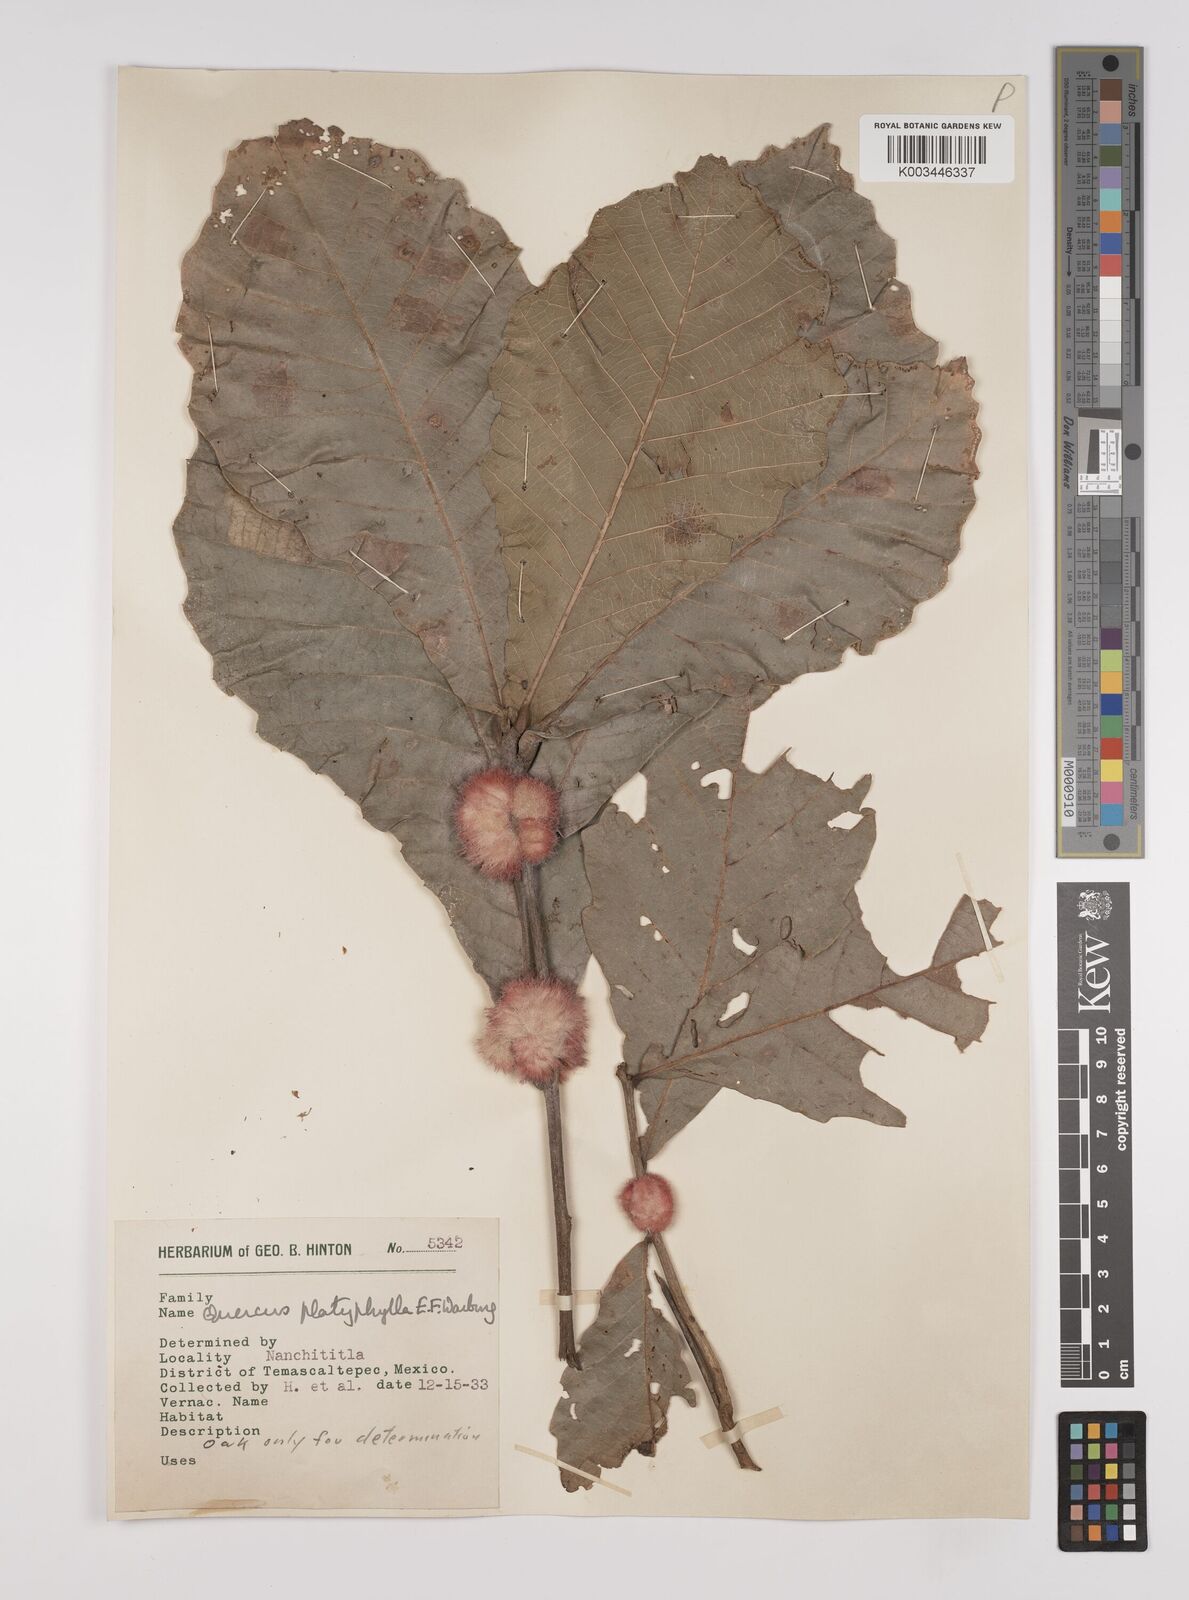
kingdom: Plantae
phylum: Tracheophyta
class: Magnoliopsida
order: Fagales
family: Fagaceae
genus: Quercus
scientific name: Quercus
